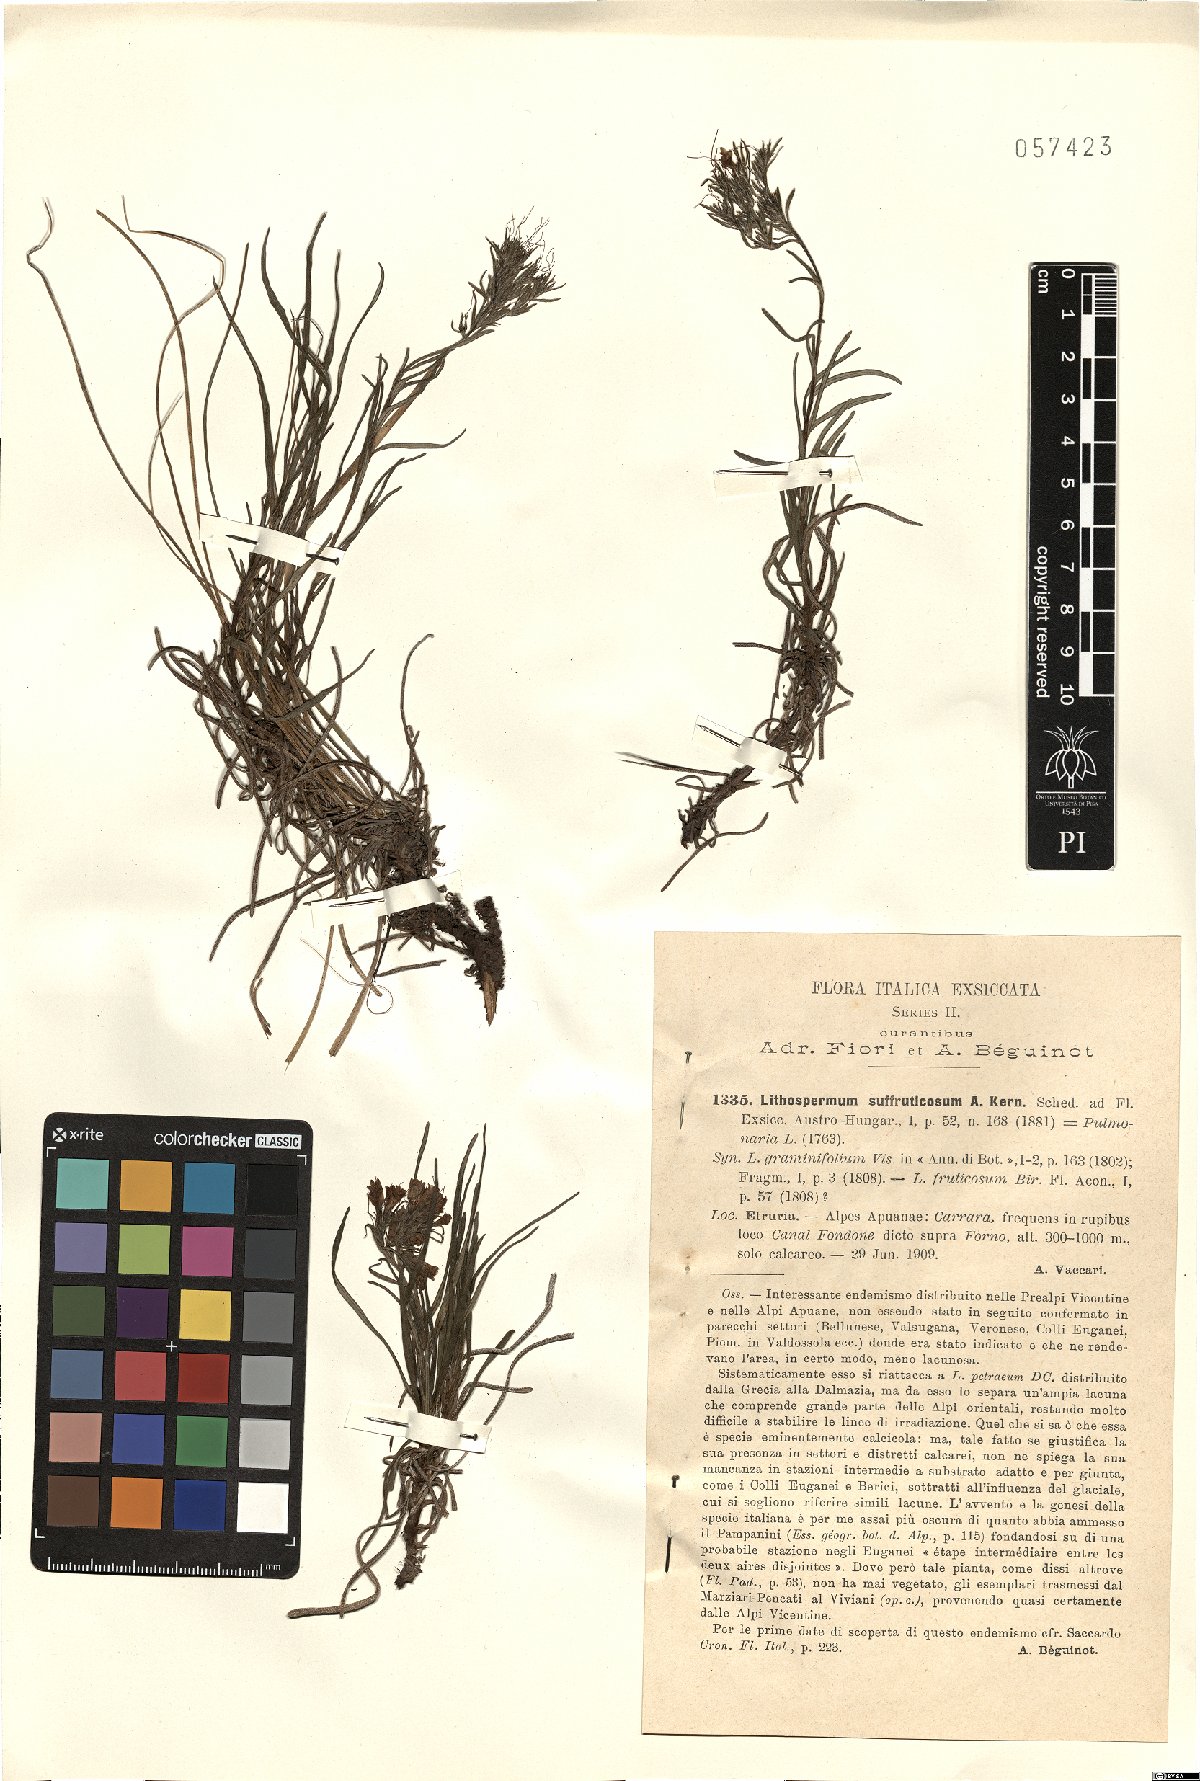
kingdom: Plantae
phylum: Tracheophyta
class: Magnoliopsida
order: Boraginales
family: Boraginaceae
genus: Moltkia
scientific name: Moltkia suffruticosa
